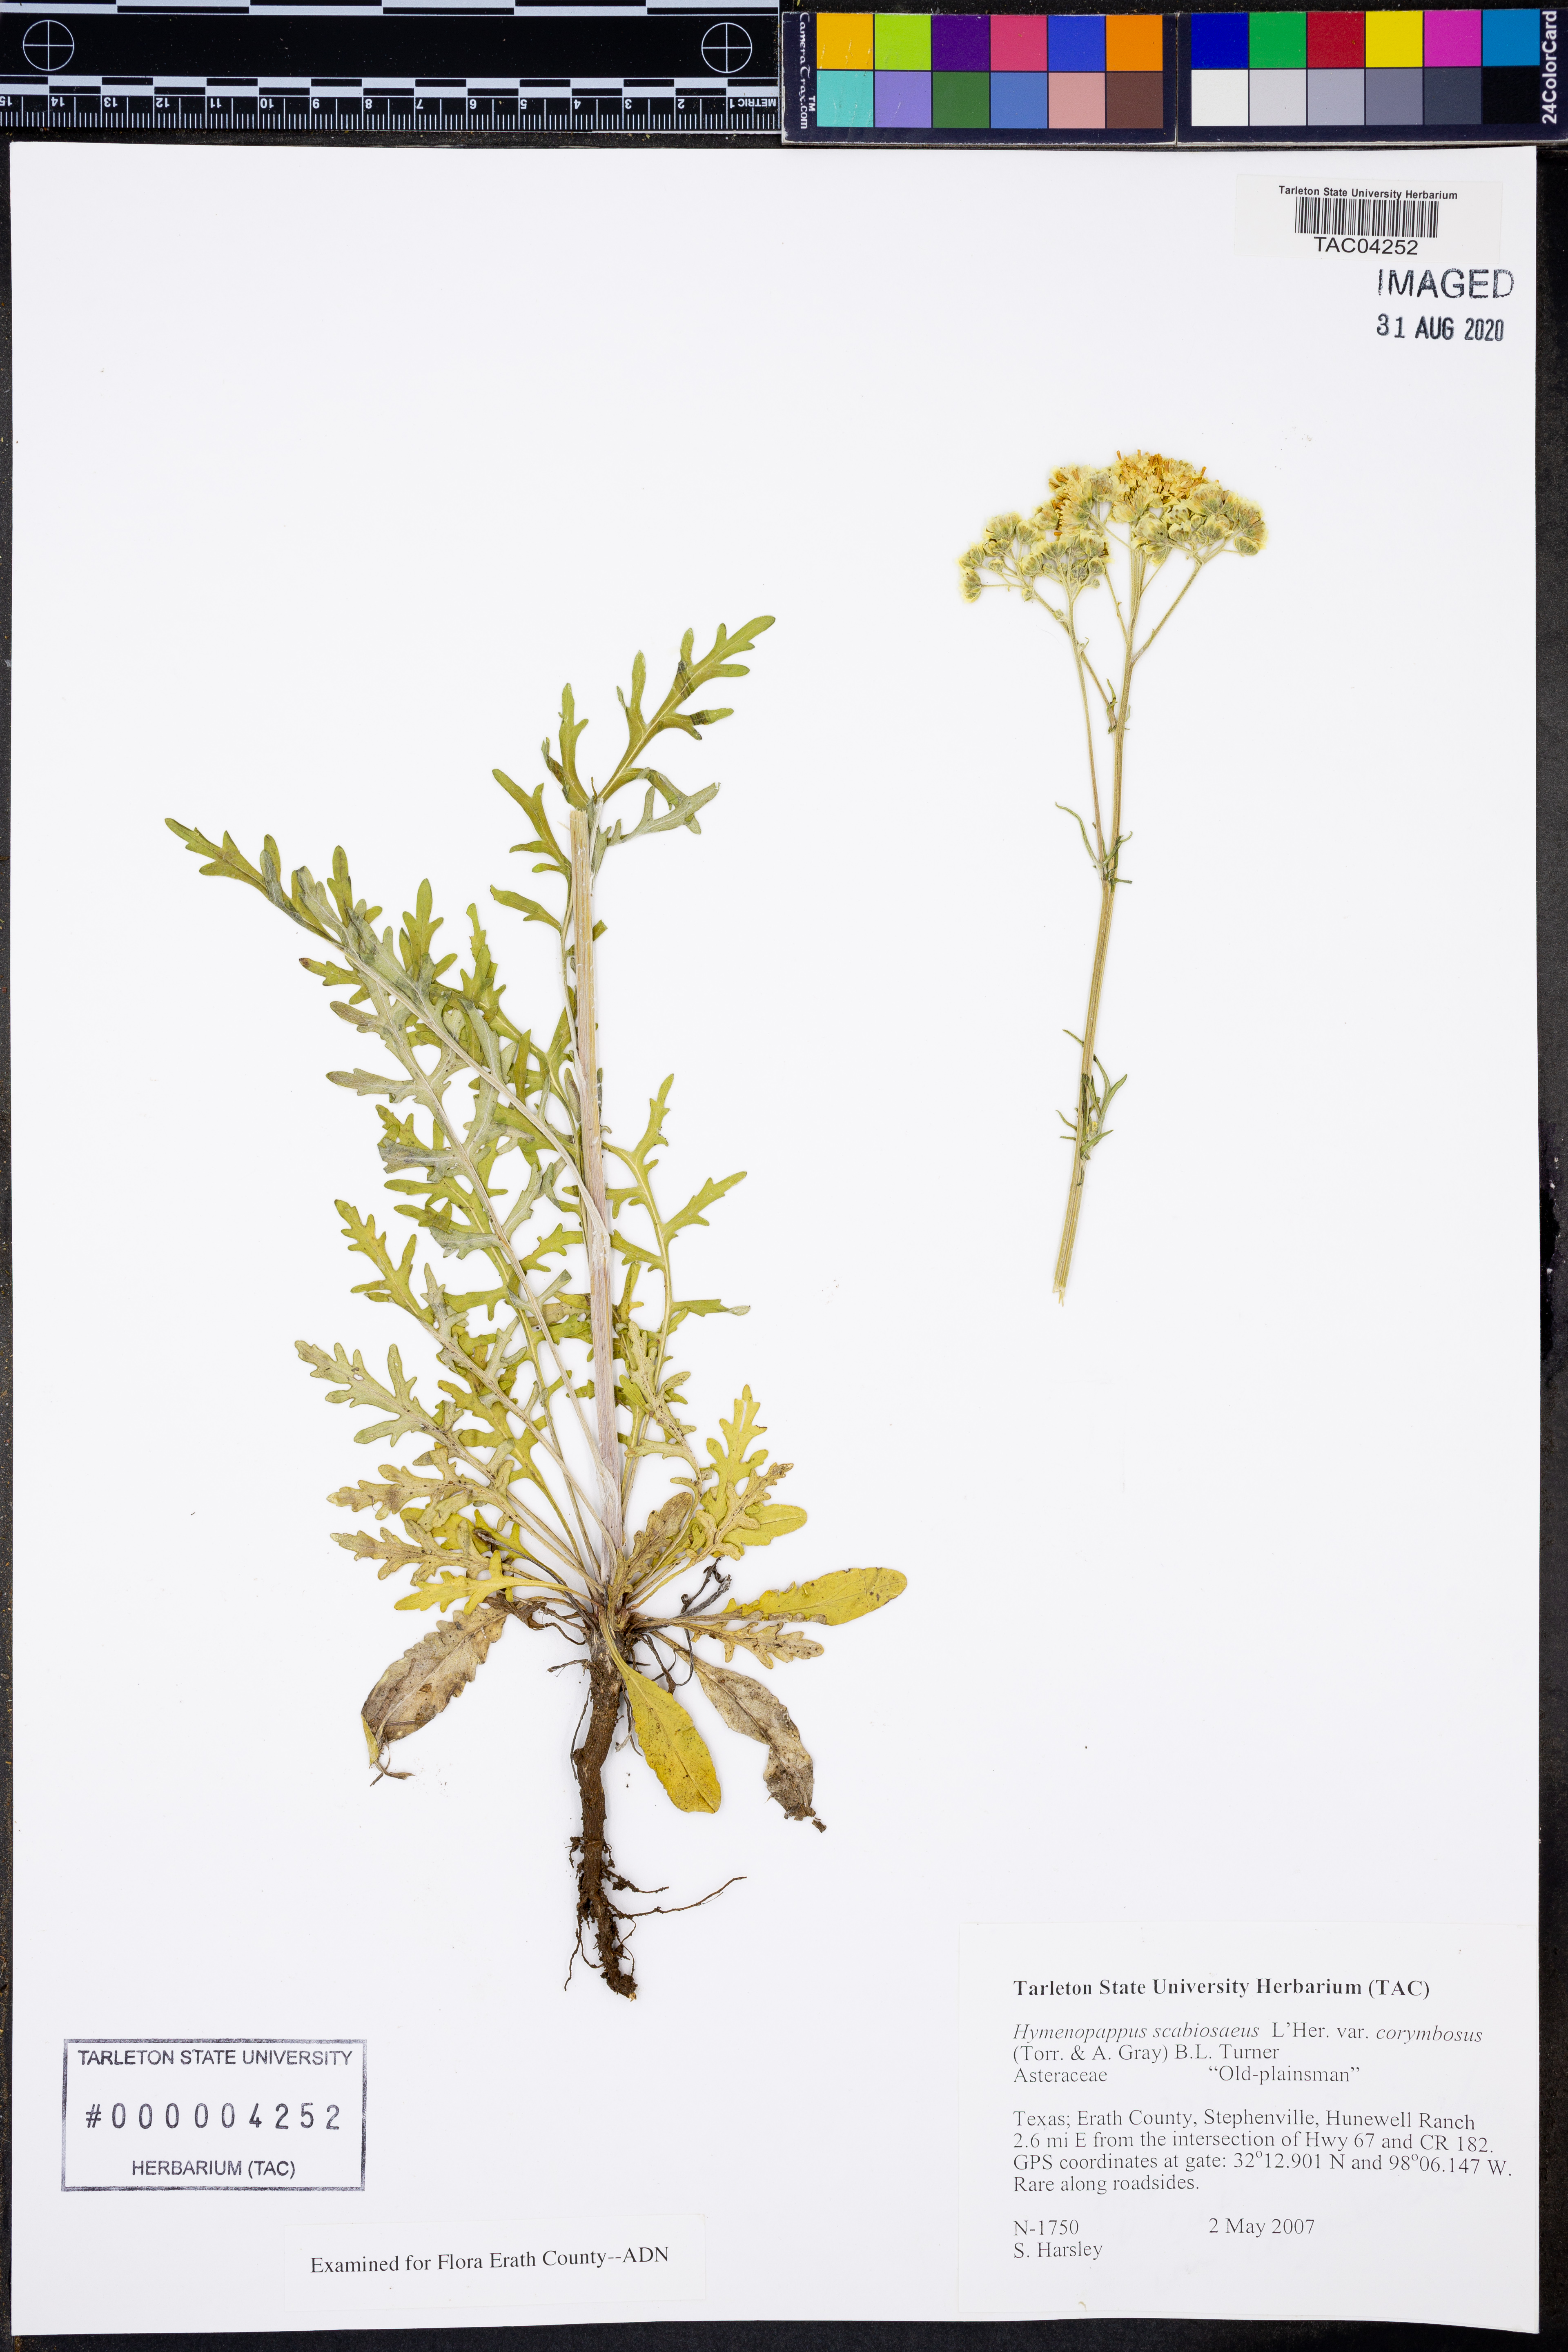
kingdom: Plantae
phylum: Tracheophyta
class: Magnoliopsida
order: Asterales
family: Asteraceae
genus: Hymenopappus
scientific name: Hymenopappus scabiosaeus
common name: Carolina woollywhite
